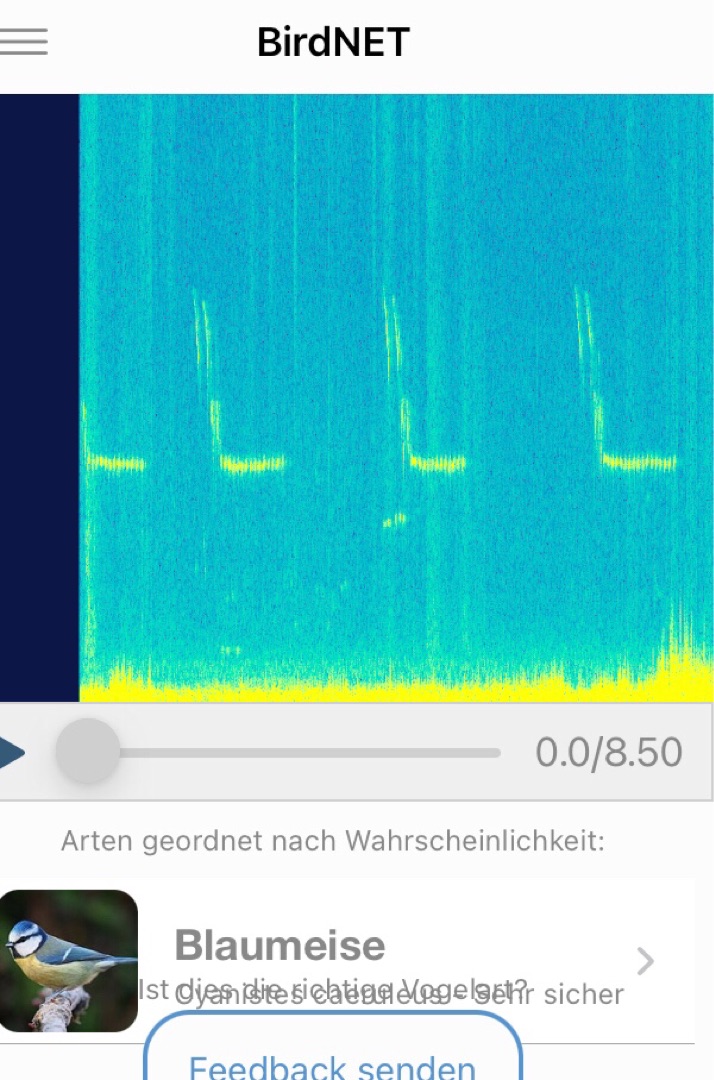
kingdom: Animalia
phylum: Chordata
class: Aves
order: Passeriformes
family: Paridae
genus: Cyanistes
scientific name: Cyanistes caeruleus
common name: Blåmejse
